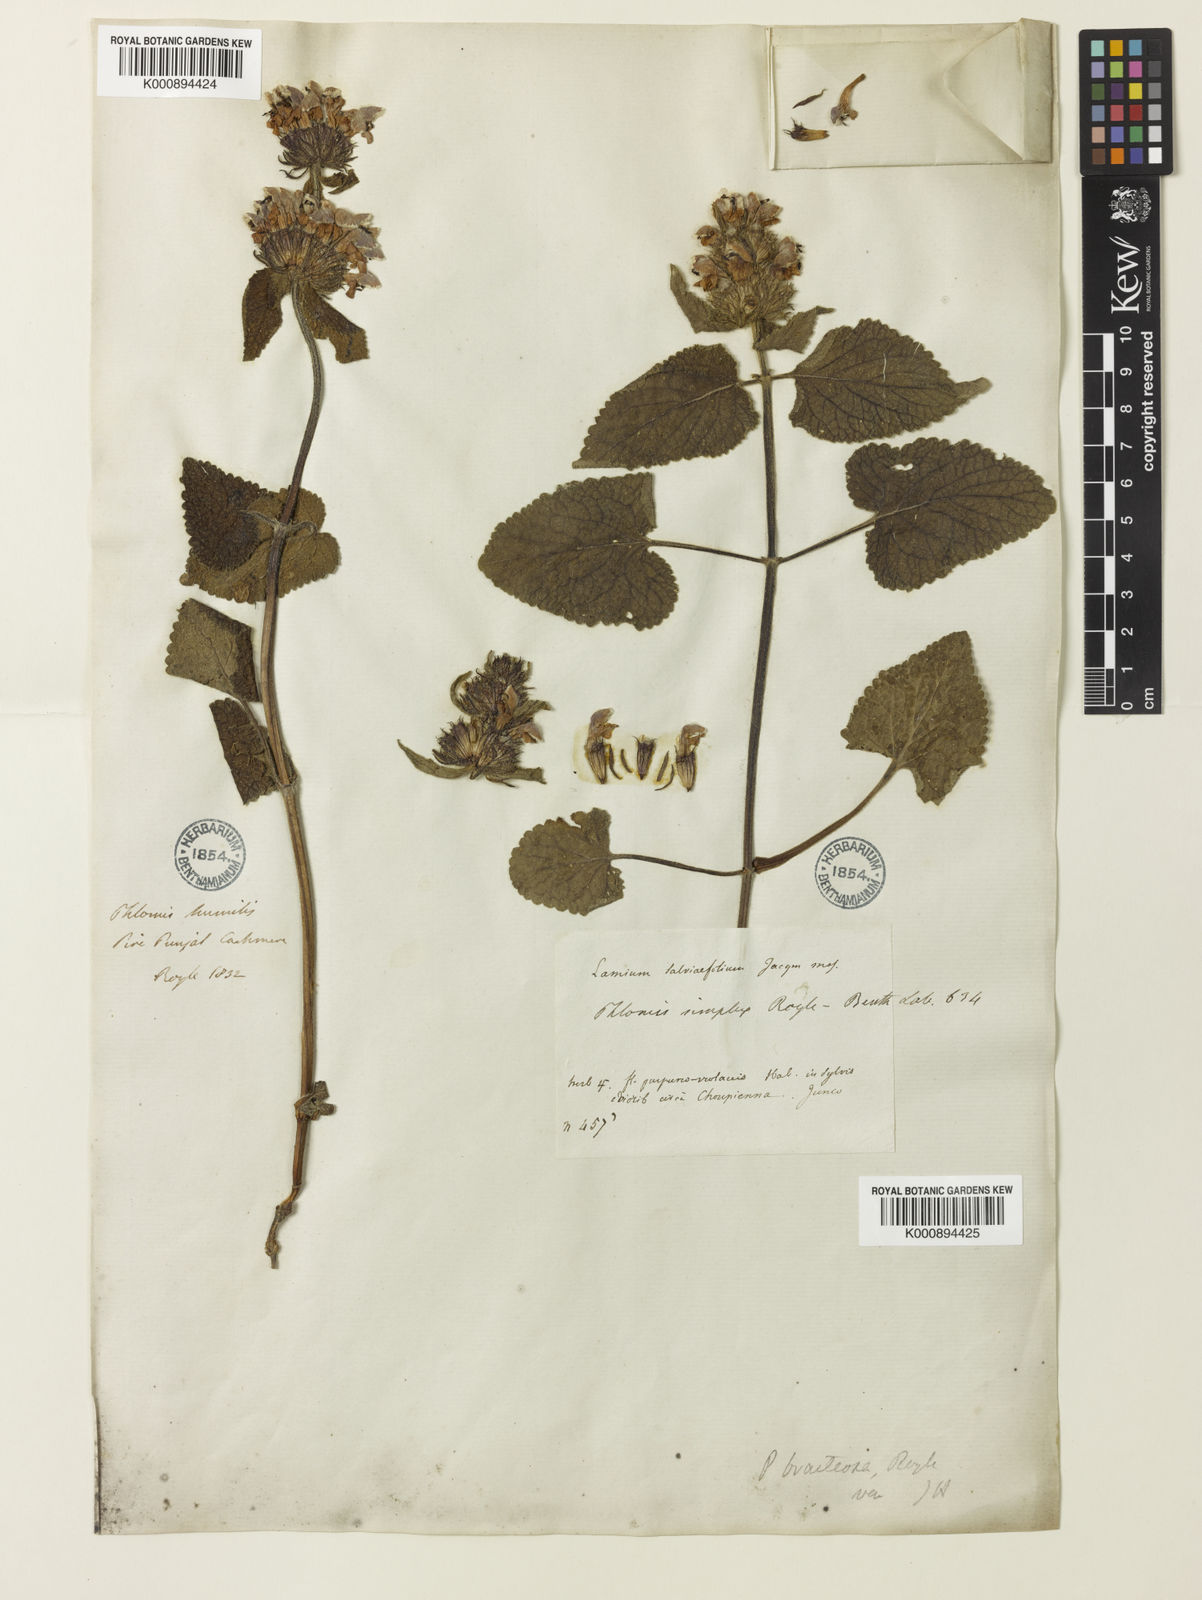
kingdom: Plantae
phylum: Tracheophyta
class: Magnoliopsida
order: Lamiales
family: Lamiaceae
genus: Phlomoides
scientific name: Phlomoides bracteosa
